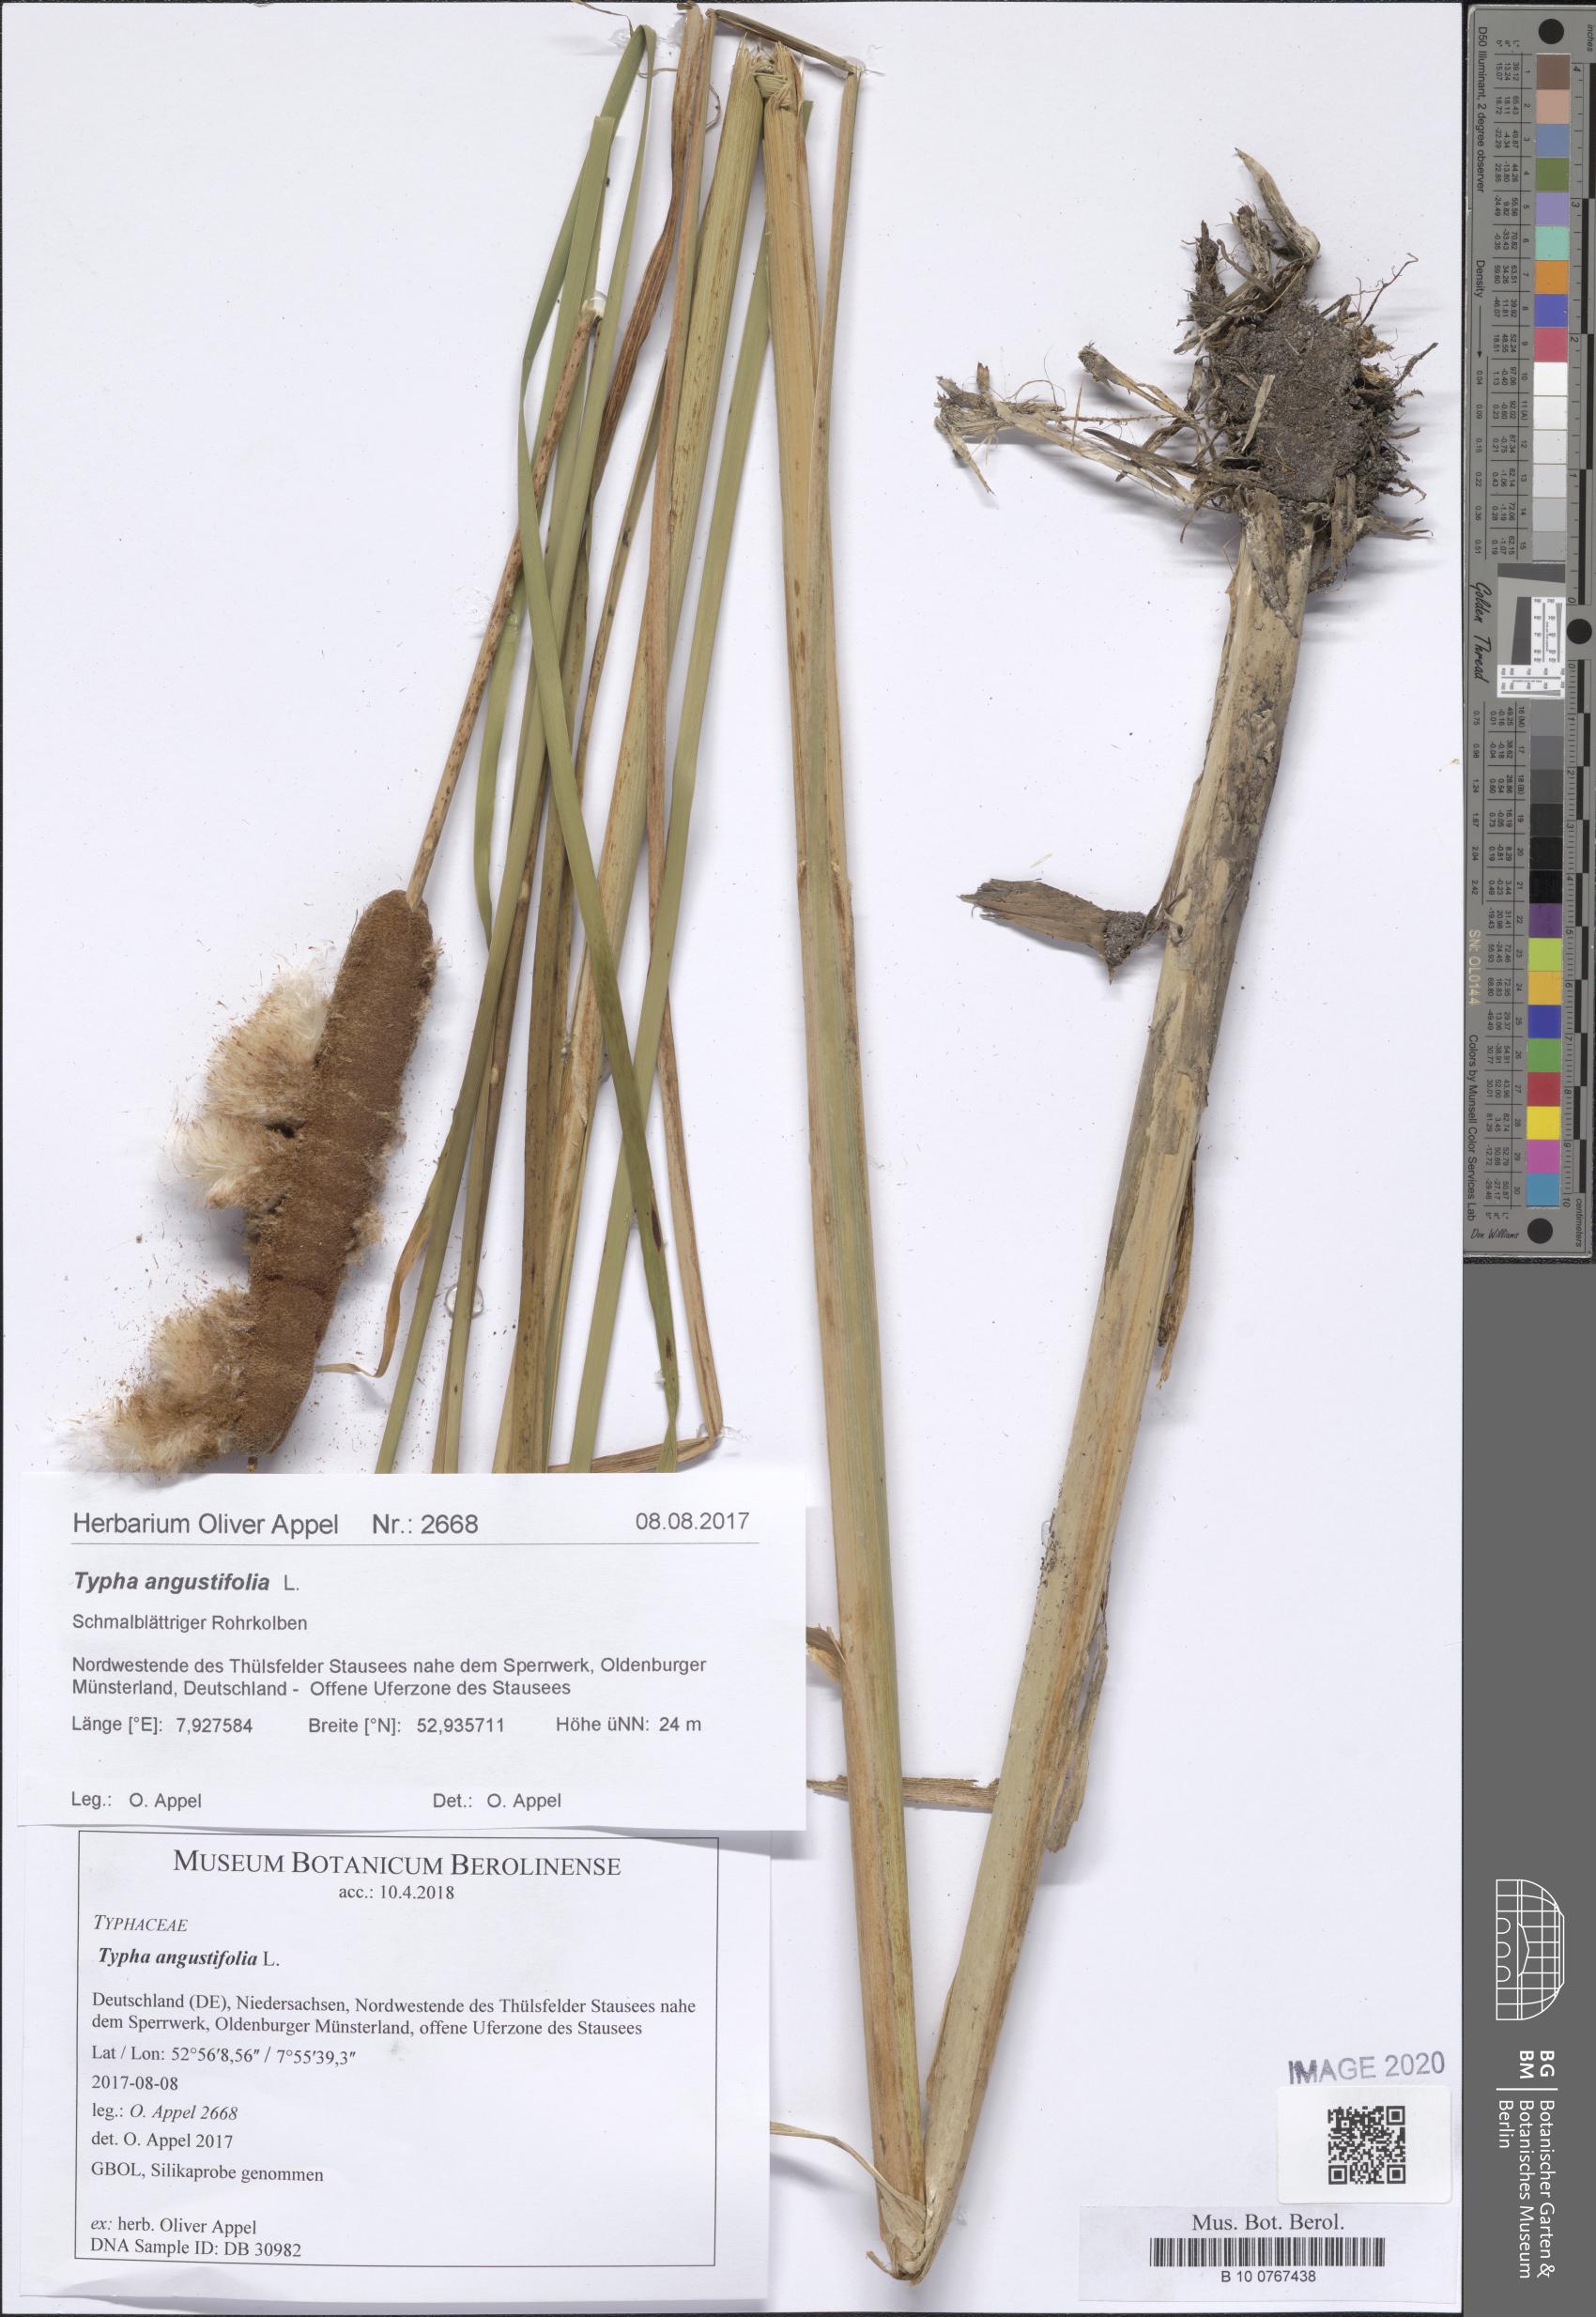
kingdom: Plantae
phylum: Tracheophyta
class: Liliopsida
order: Poales
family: Typhaceae
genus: Typha
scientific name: Typha angustifolia
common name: Lesser bulrush
